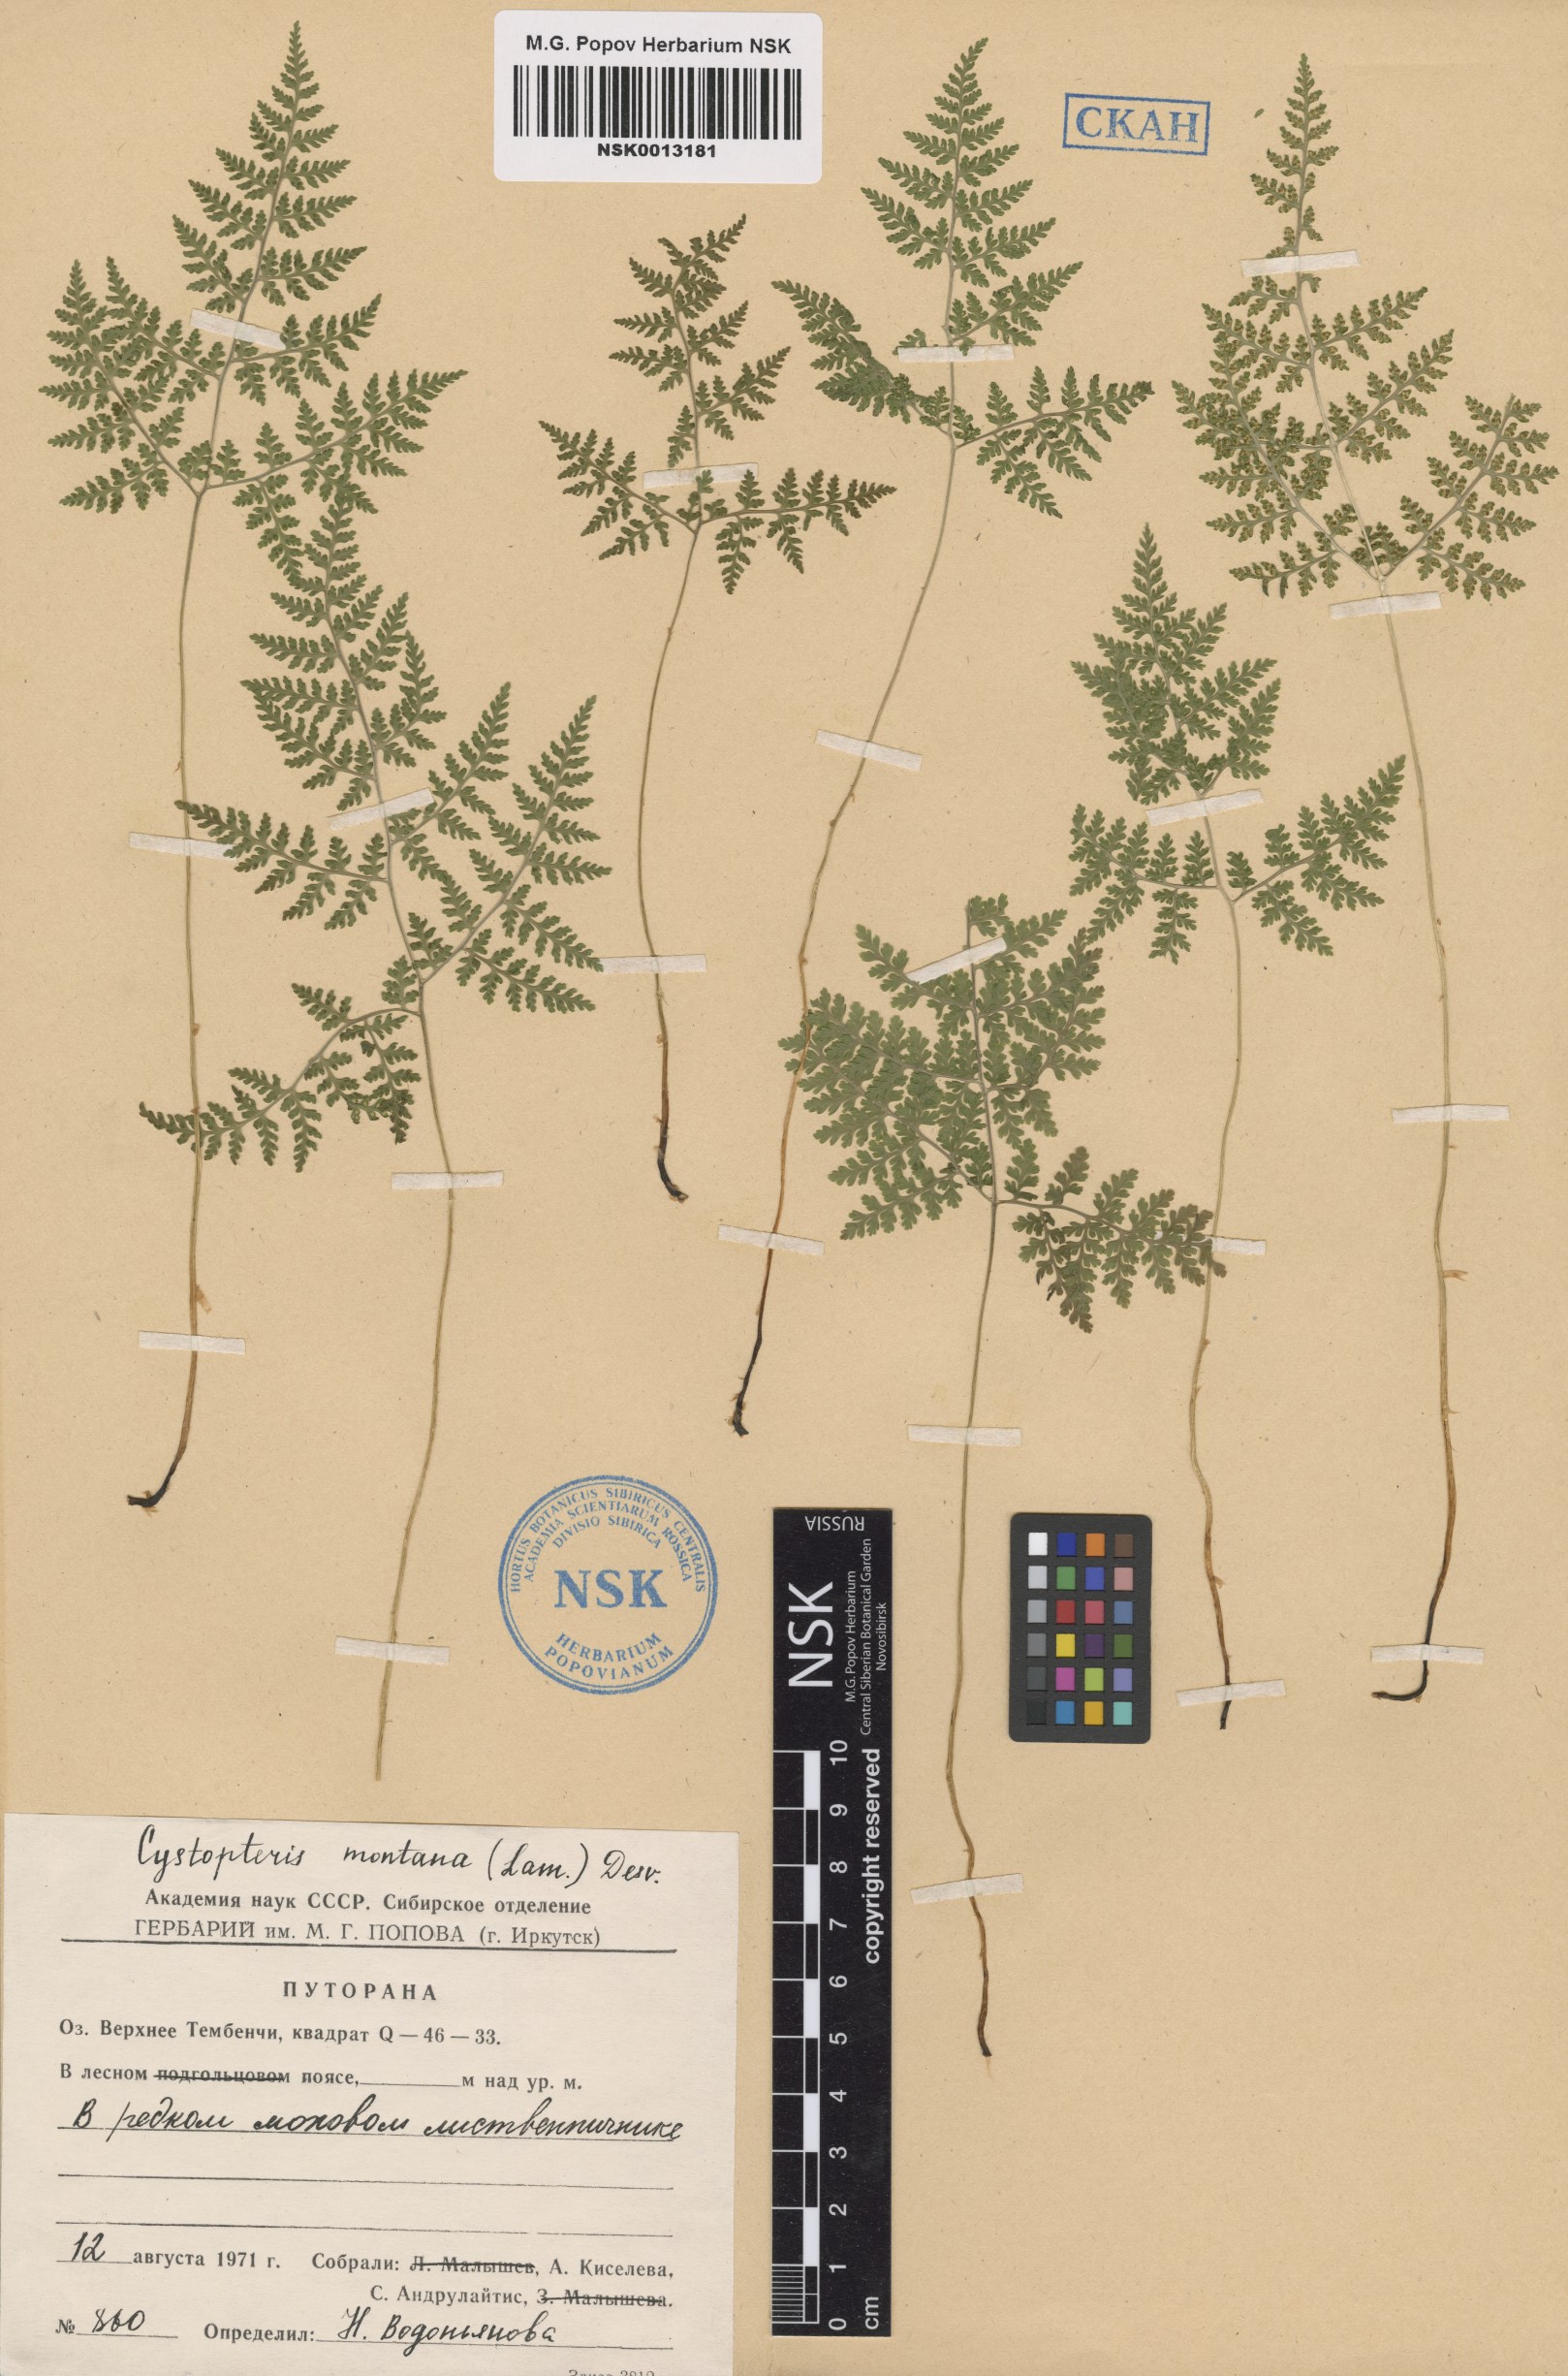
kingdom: Plantae
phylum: Tracheophyta
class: Polypodiopsida
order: Polypodiales
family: Cystopteridaceae
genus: Cystopteris
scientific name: Cystopteris montana
